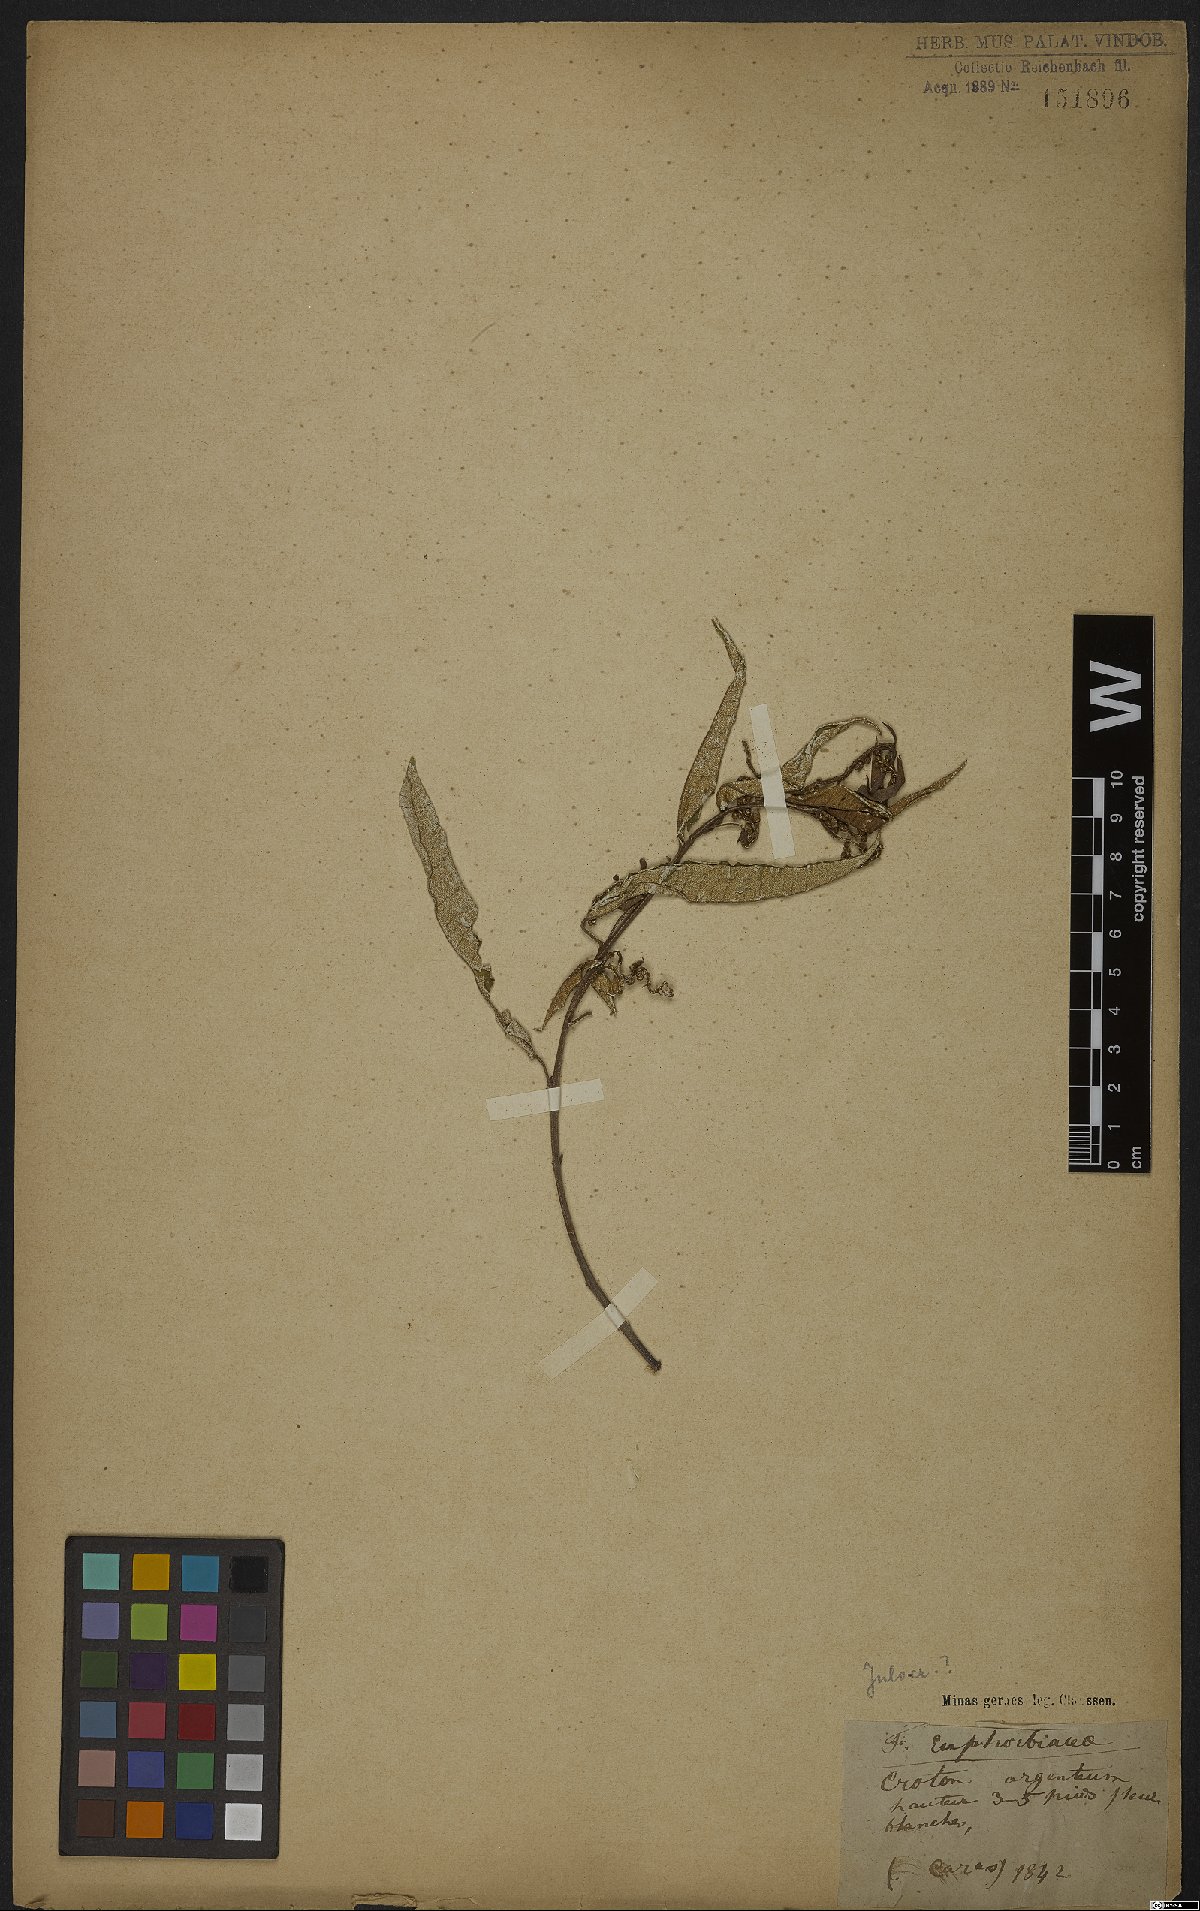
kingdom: Plantae
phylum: Tracheophyta
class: Magnoliopsida
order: Malpighiales
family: Euphorbiaceae
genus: Croton
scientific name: Croton
